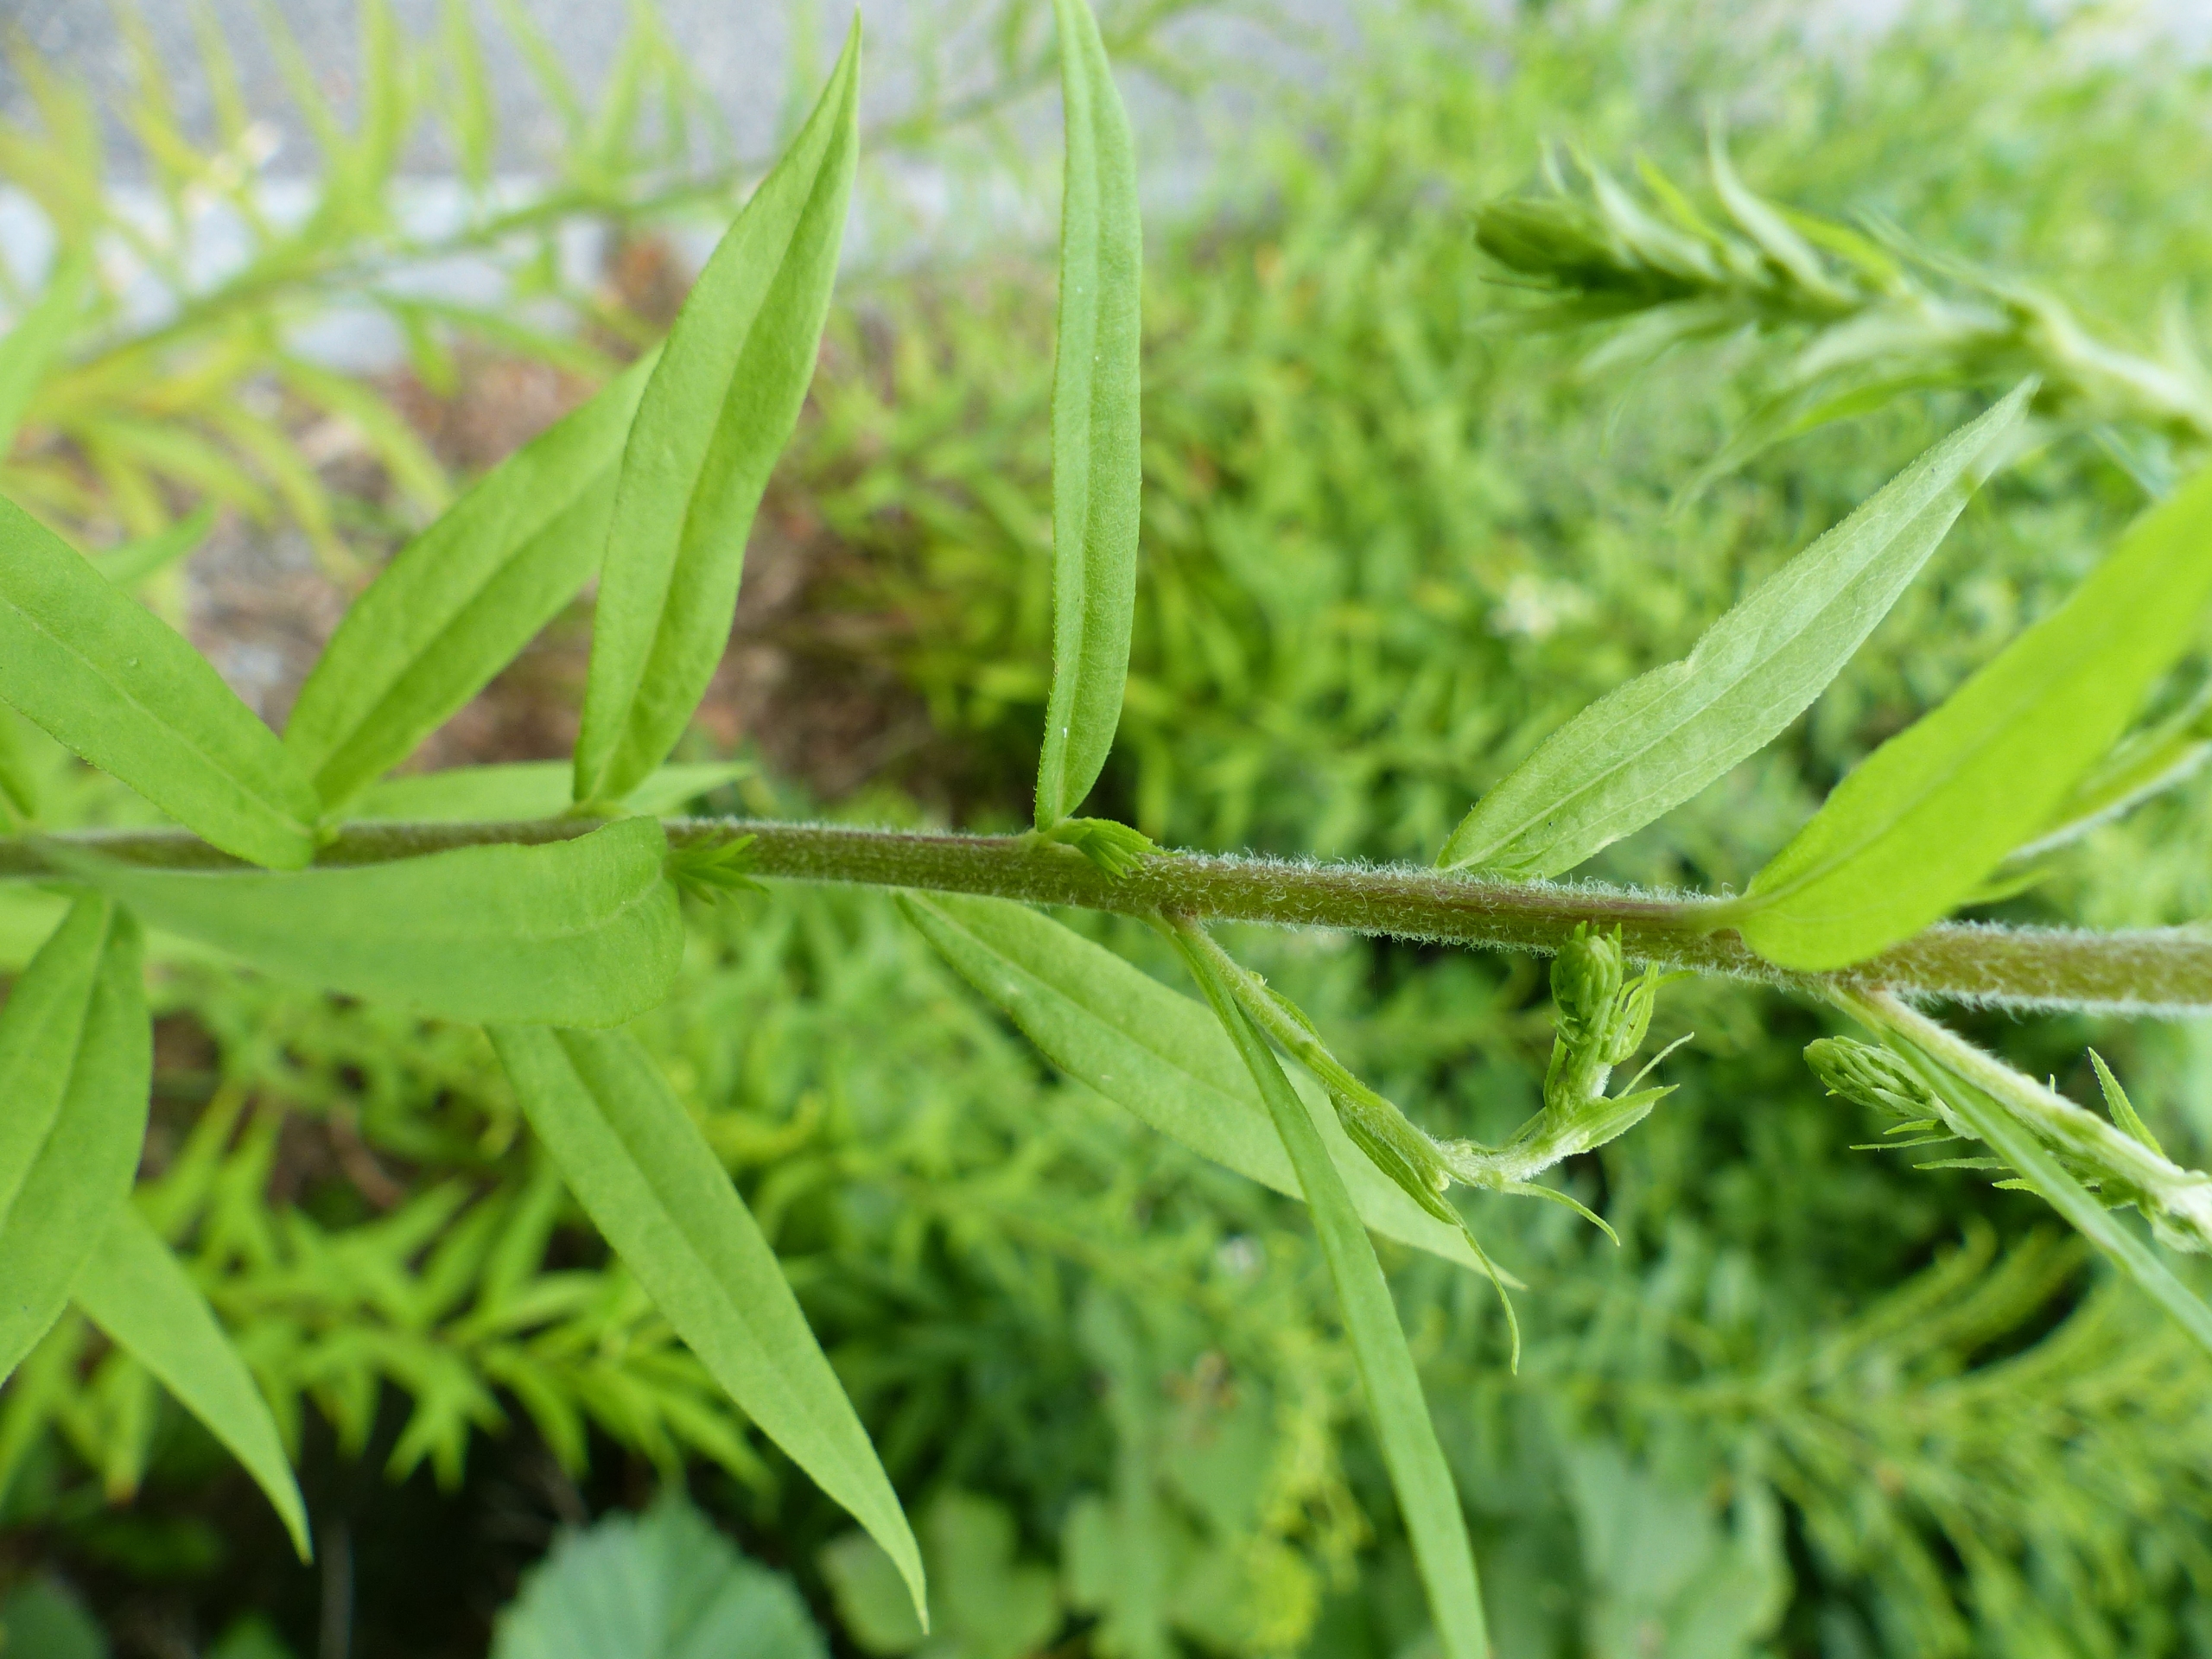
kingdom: Plantae
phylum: Tracheophyta
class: Magnoliopsida
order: Asterales
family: Asteraceae
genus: Solidago
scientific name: Solidago canadensis
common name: Kanadisk gyldenris
